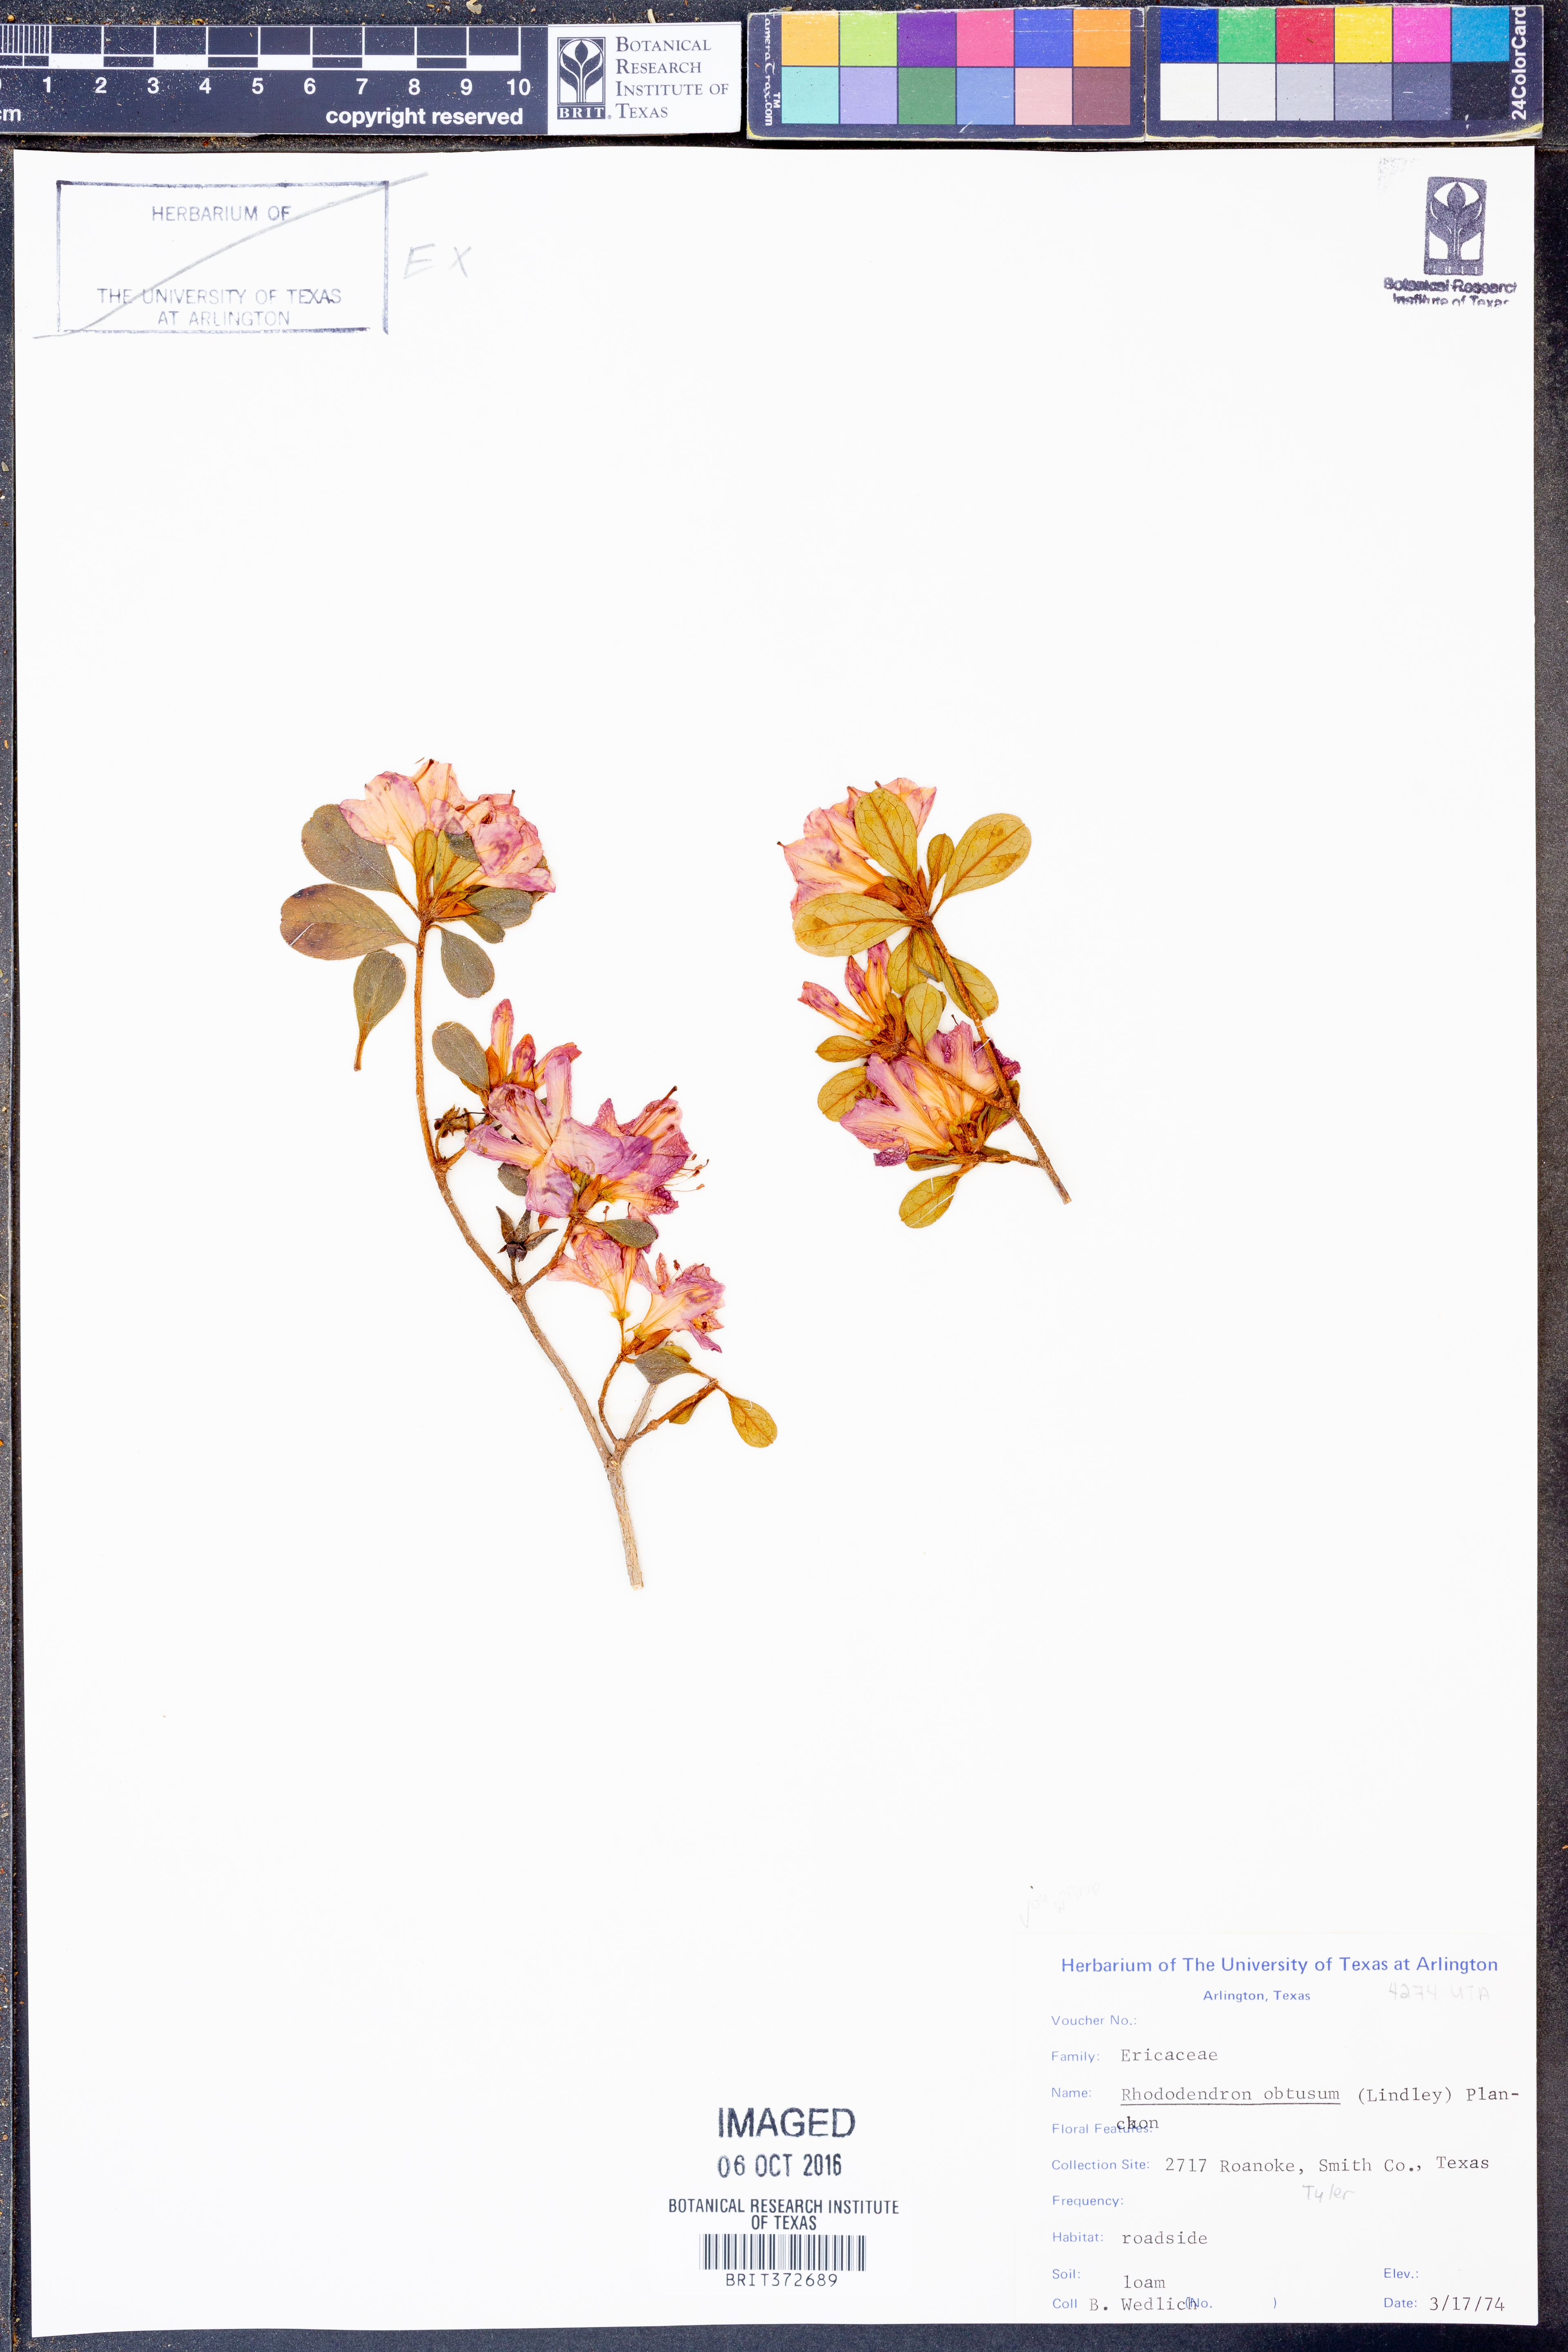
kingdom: Plantae
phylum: Tracheophyta
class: Magnoliopsida
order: Ericales
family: Ericaceae
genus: Rhododendron
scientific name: Rhododendron ponticum
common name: Rhododendron
